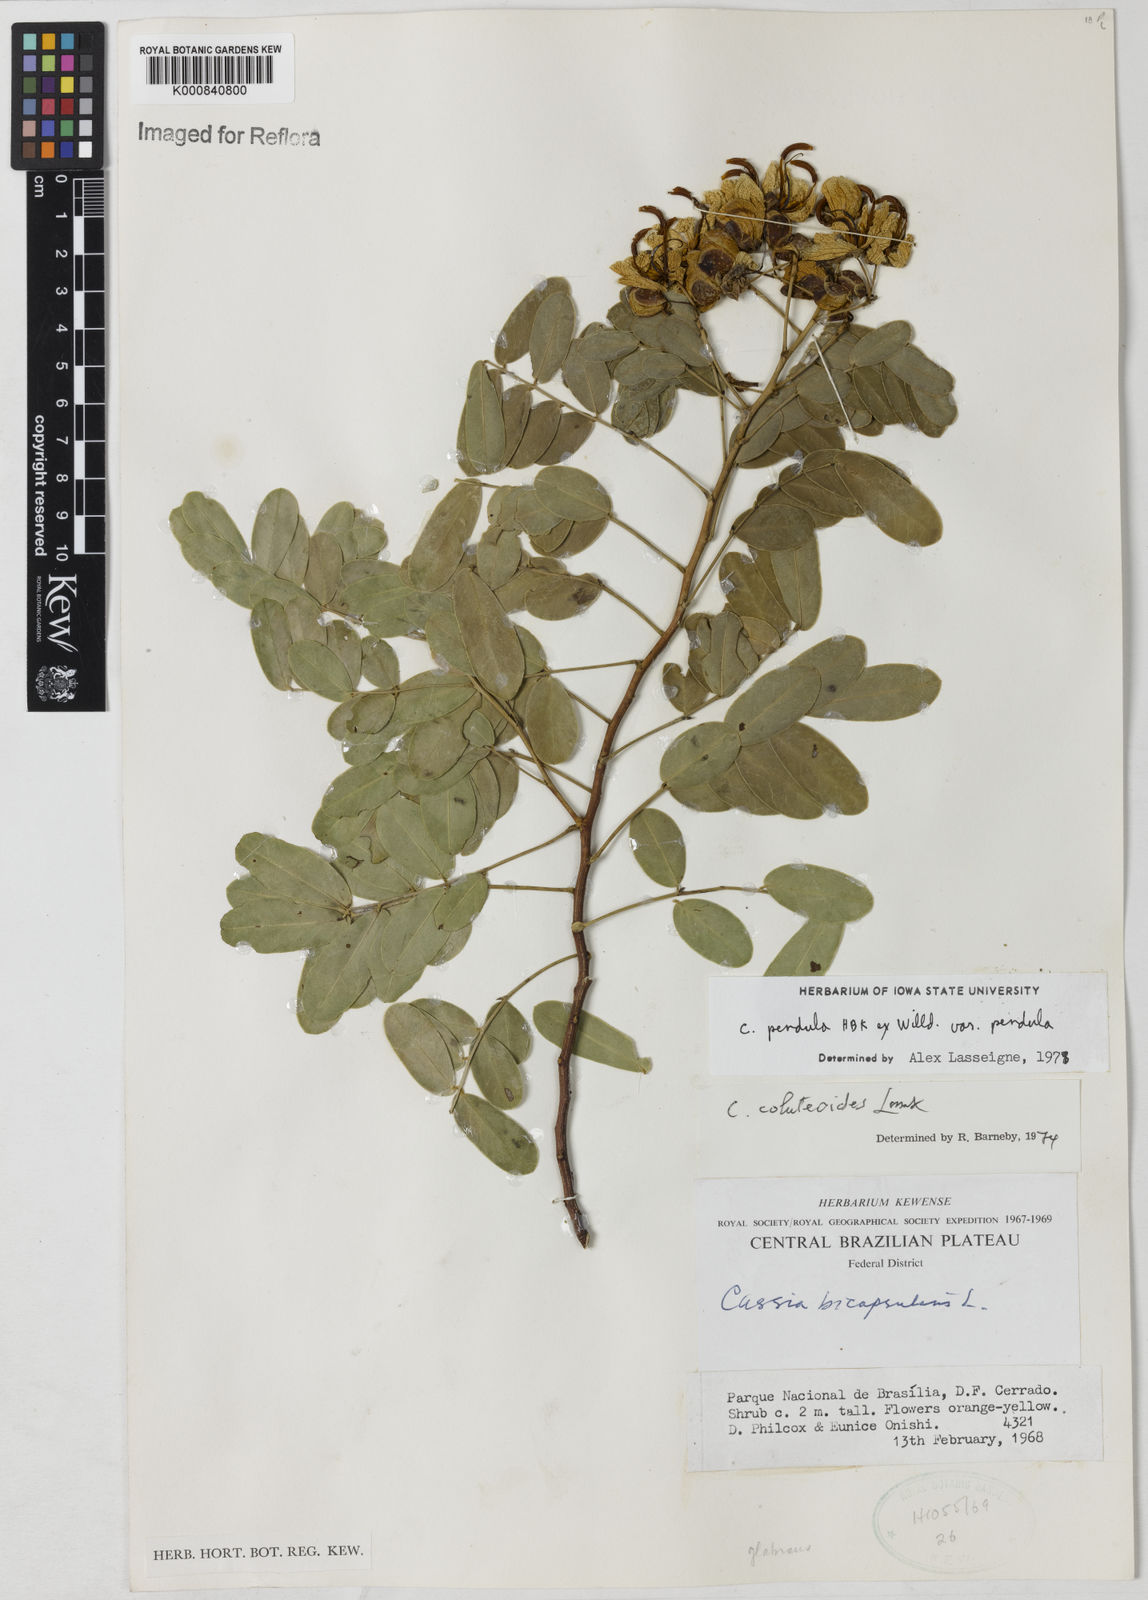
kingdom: Plantae
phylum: Tracheophyta
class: Magnoliopsida
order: Fabales
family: Fabaceae
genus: Senna
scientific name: Senna pendula
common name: Easter cassia
